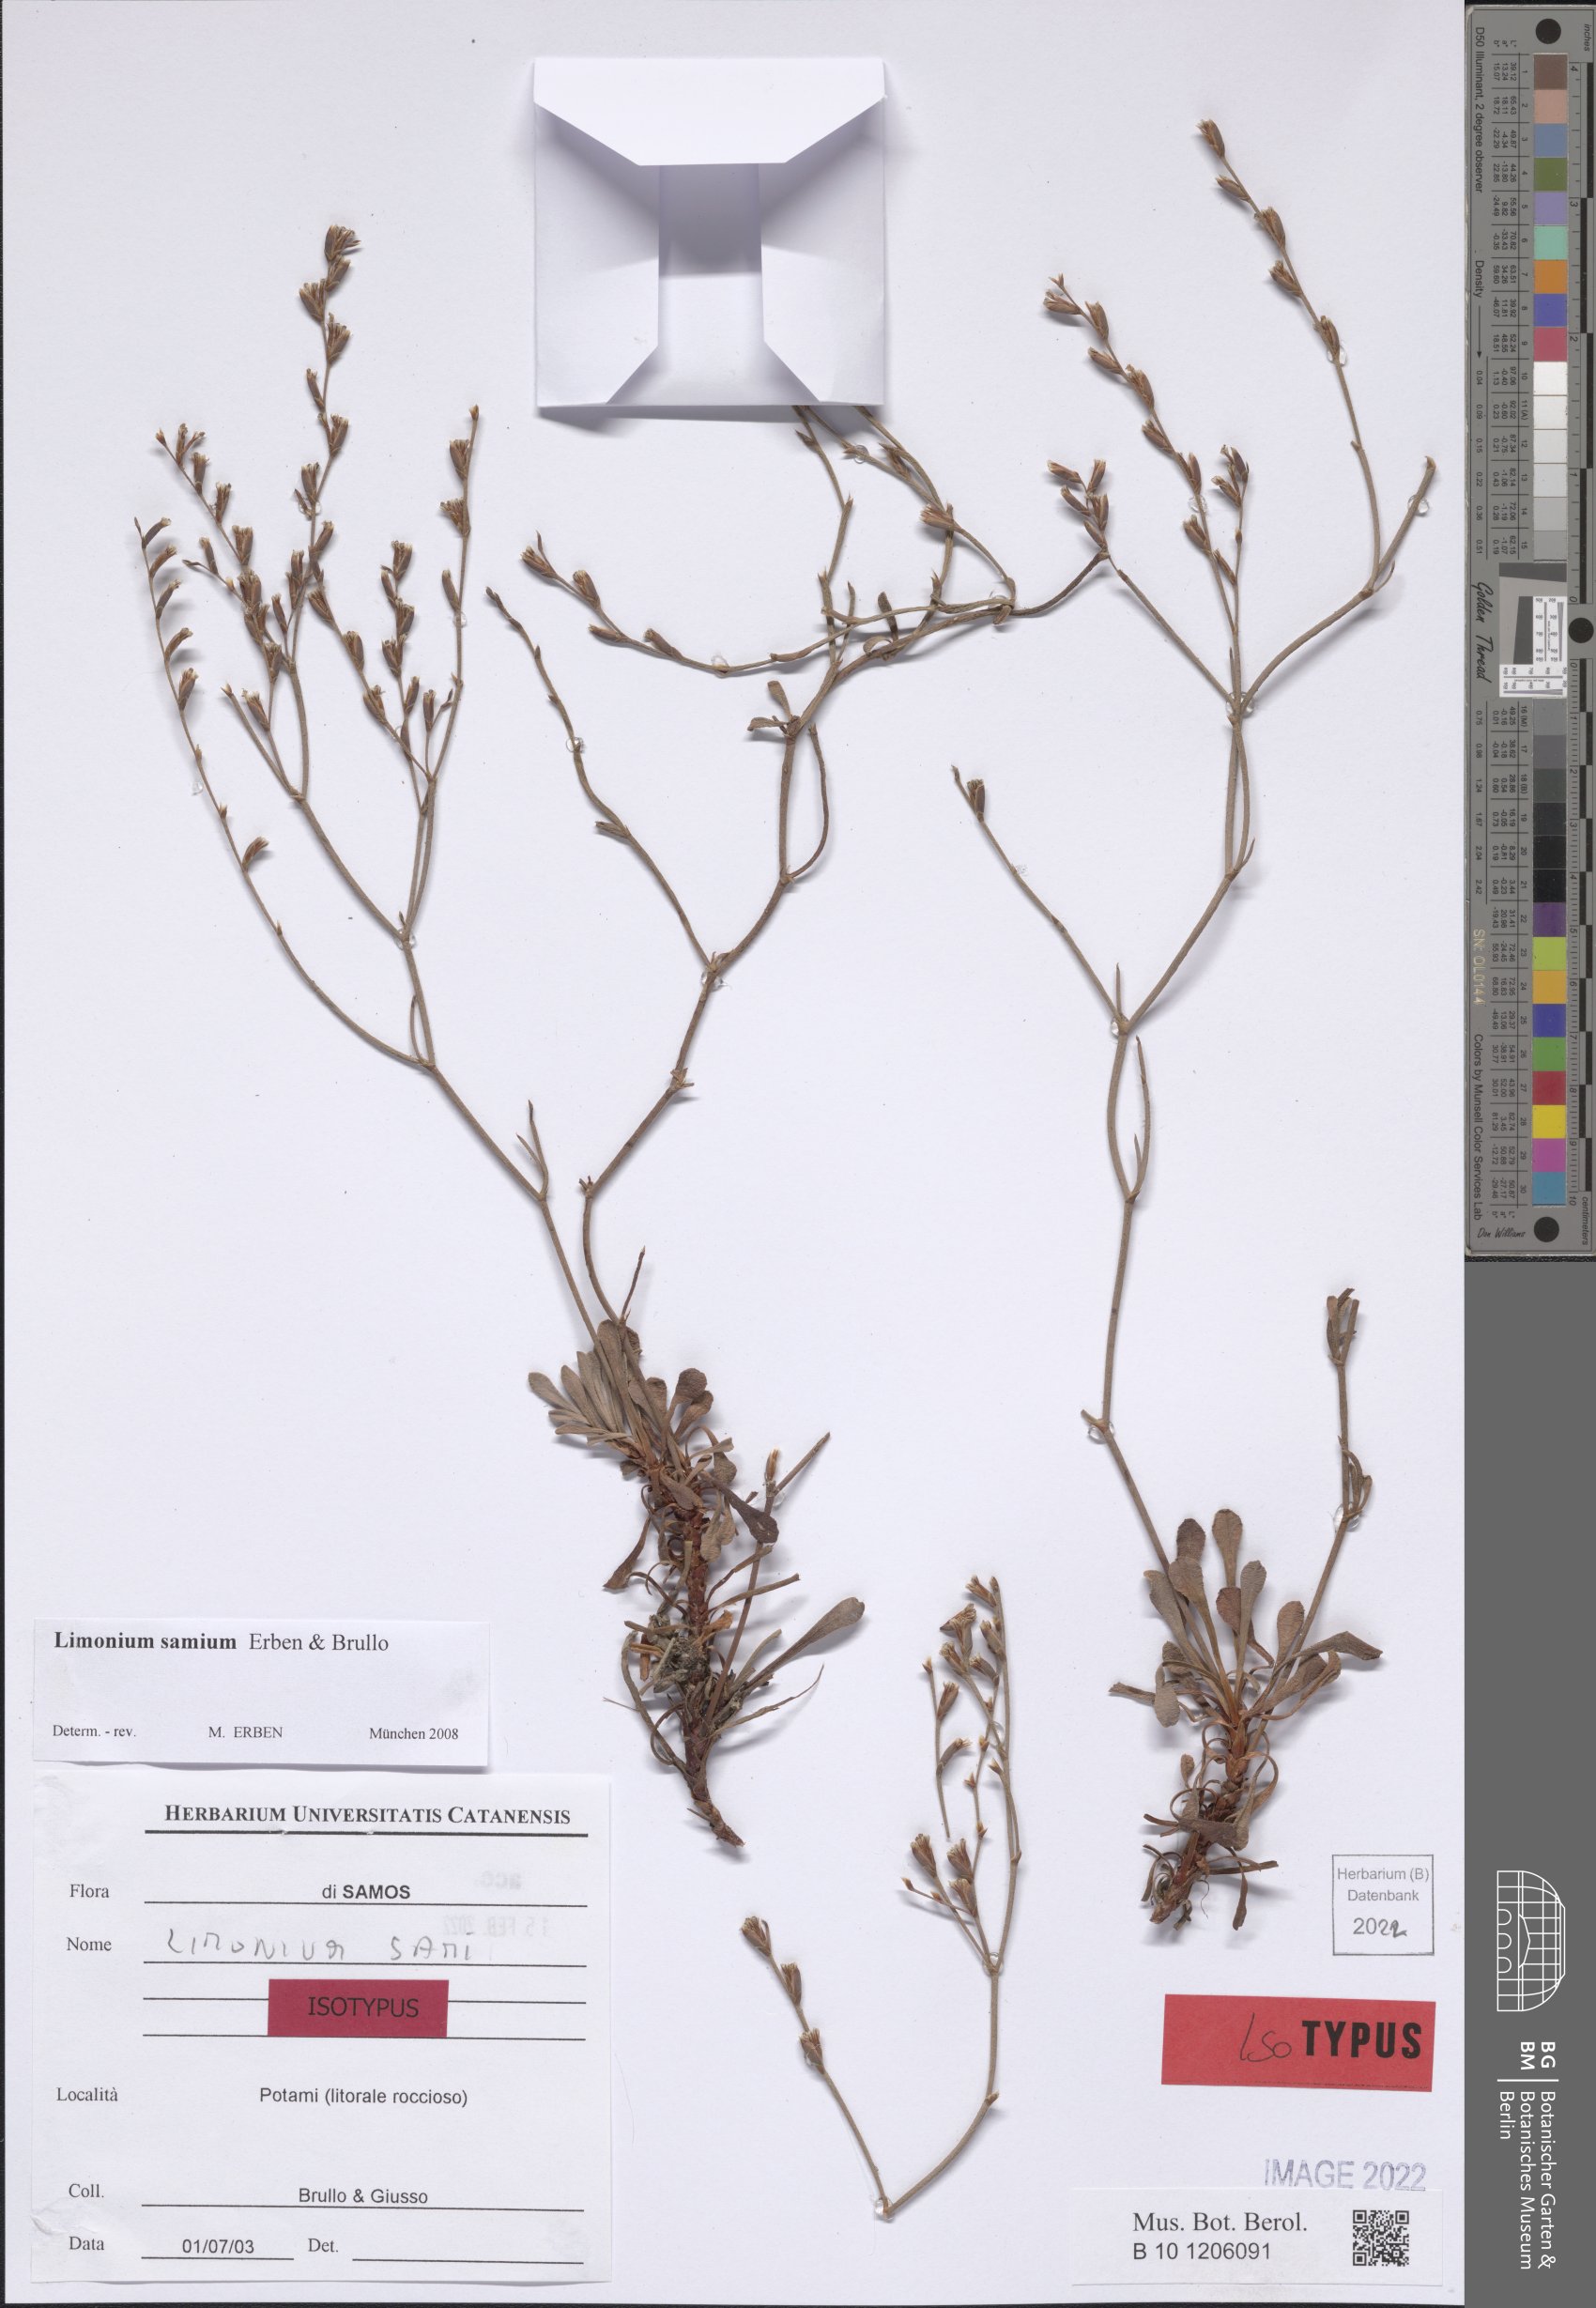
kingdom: Plantae
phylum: Tracheophyta
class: Magnoliopsida
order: Caryophyllales
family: Plumbaginaceae
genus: Limonium
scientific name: Limonium samium
